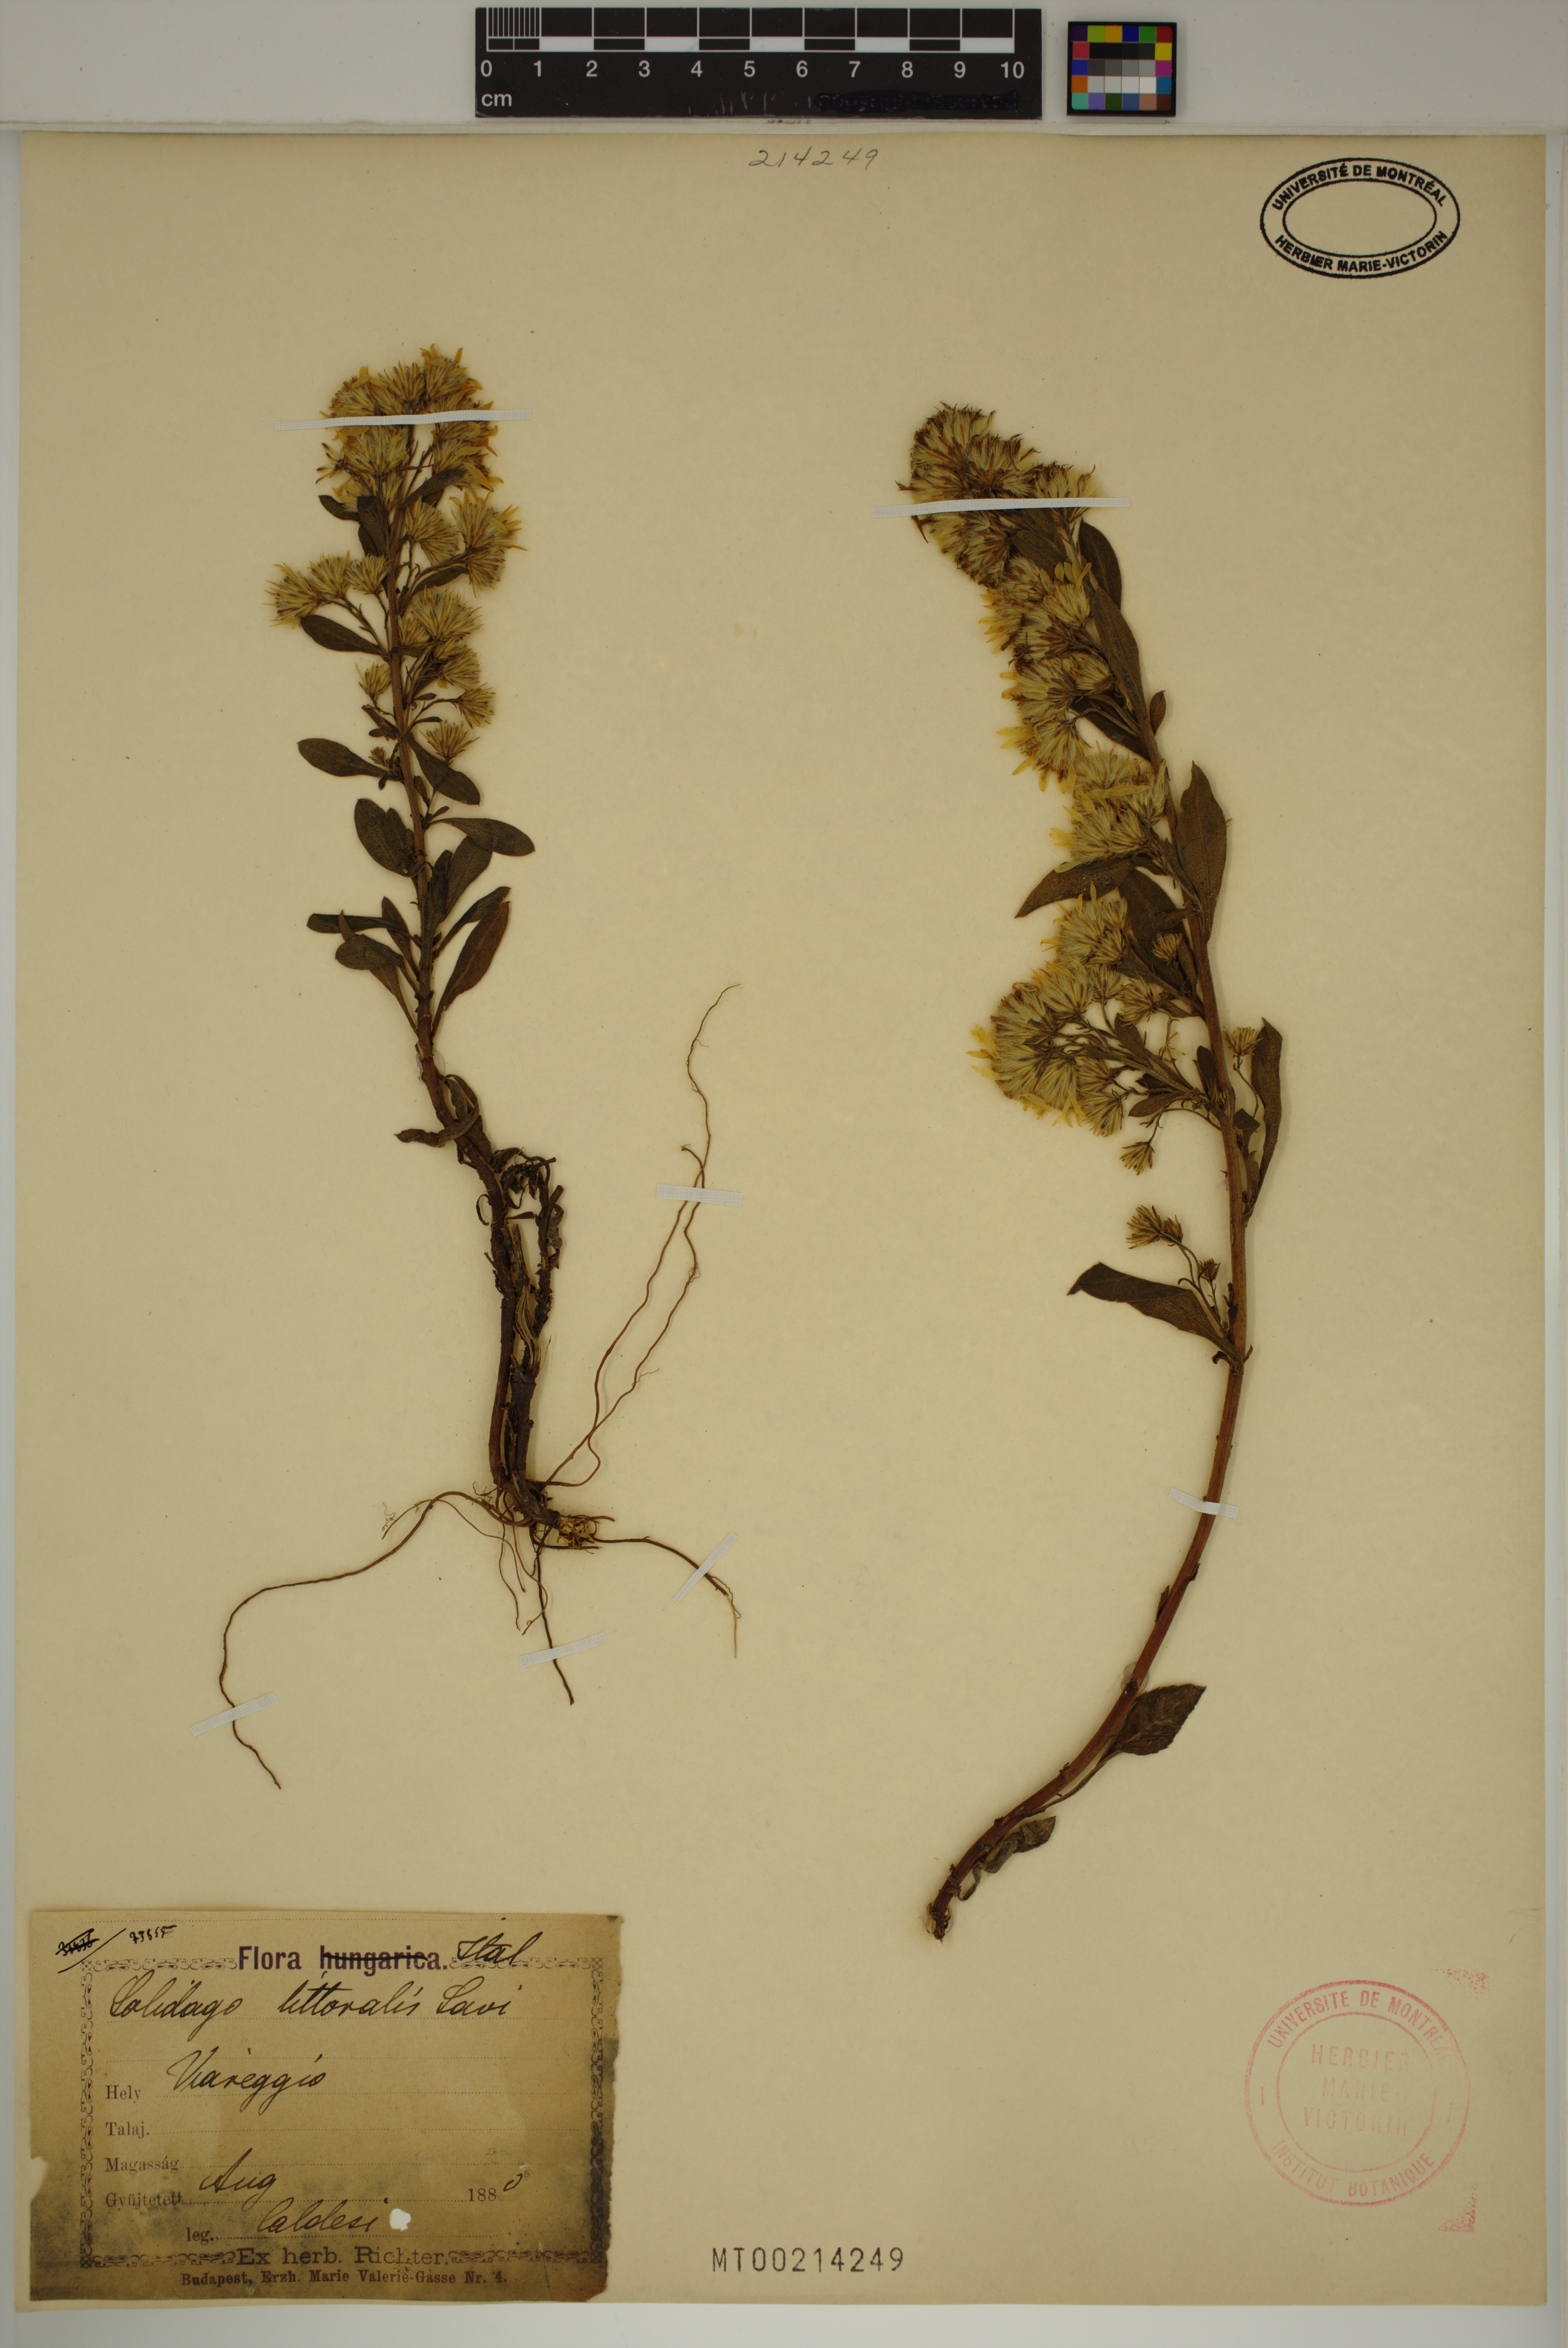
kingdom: Plantae
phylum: Tracheophyta
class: Magnoliopsida
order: Asterales
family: Asteraceae
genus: Solidago
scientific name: Solidago litoralis
